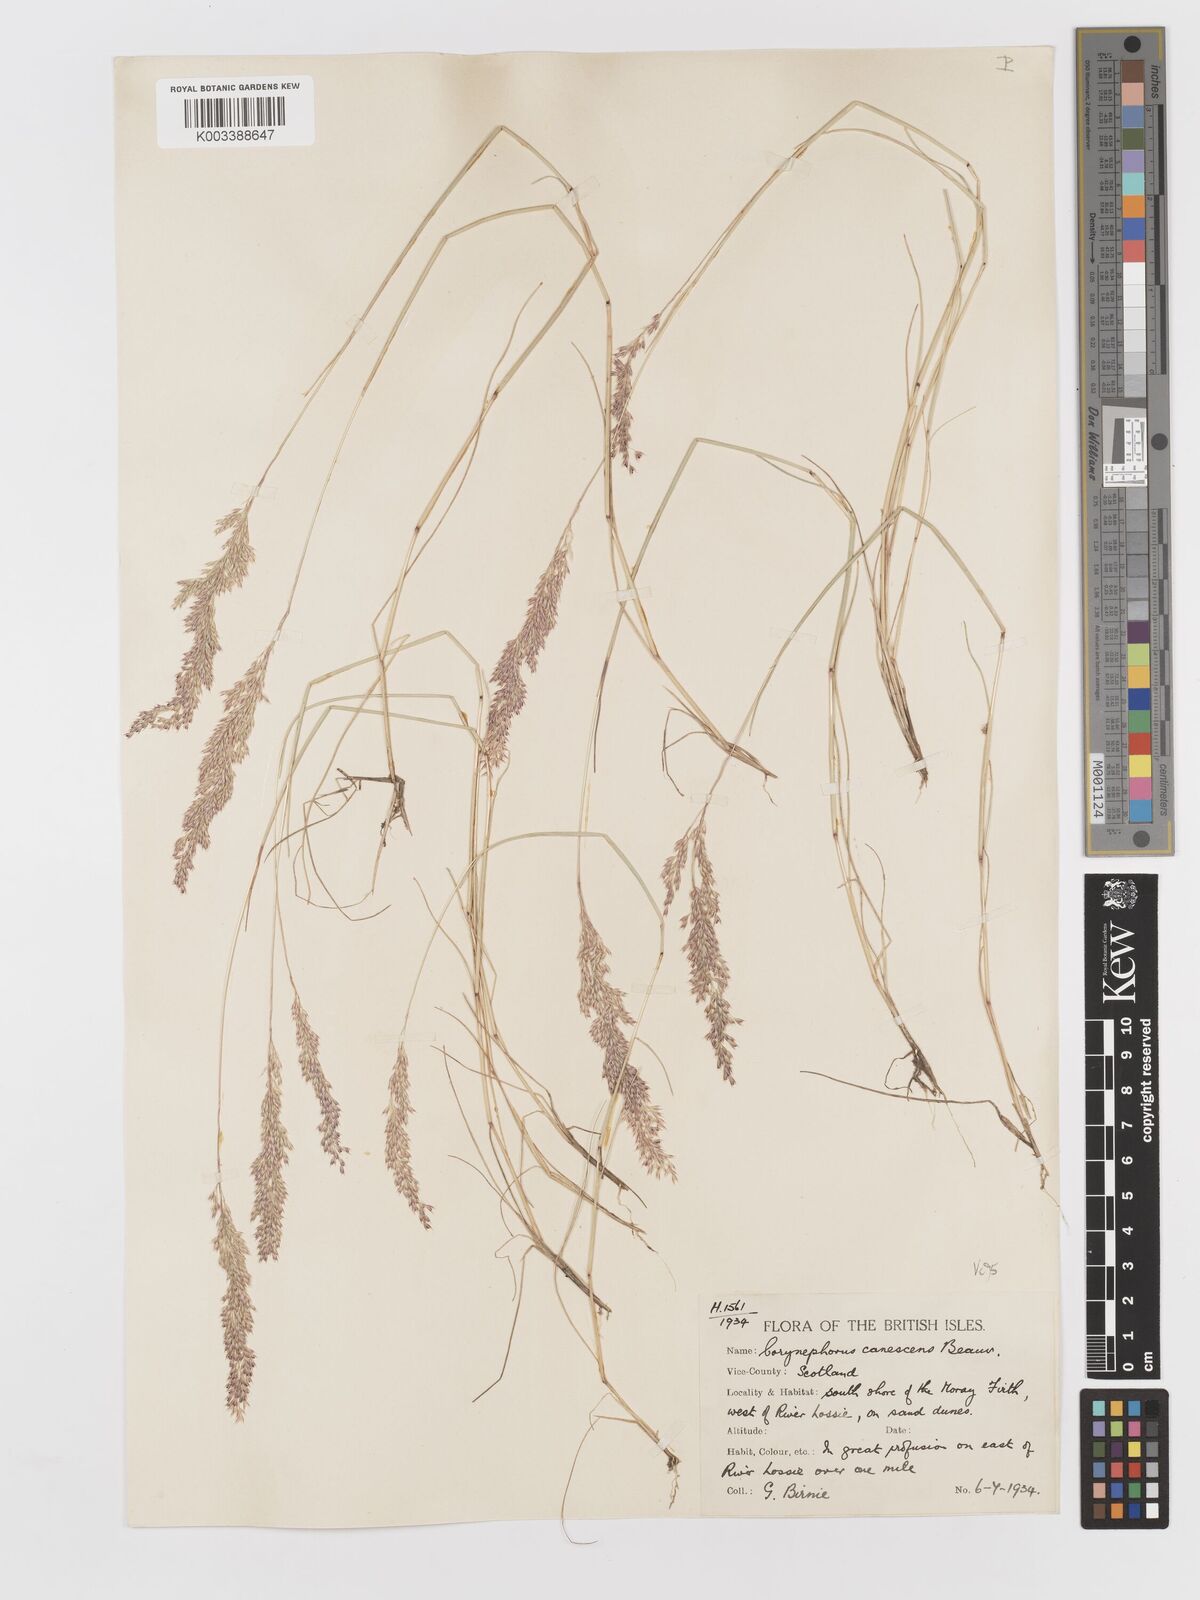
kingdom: Plantae
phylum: Tracheophyta
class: Liliopsida
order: Poales
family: Poaceae
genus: Corynephorus
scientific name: Corynephorus canescens
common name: Grey hair-grass
